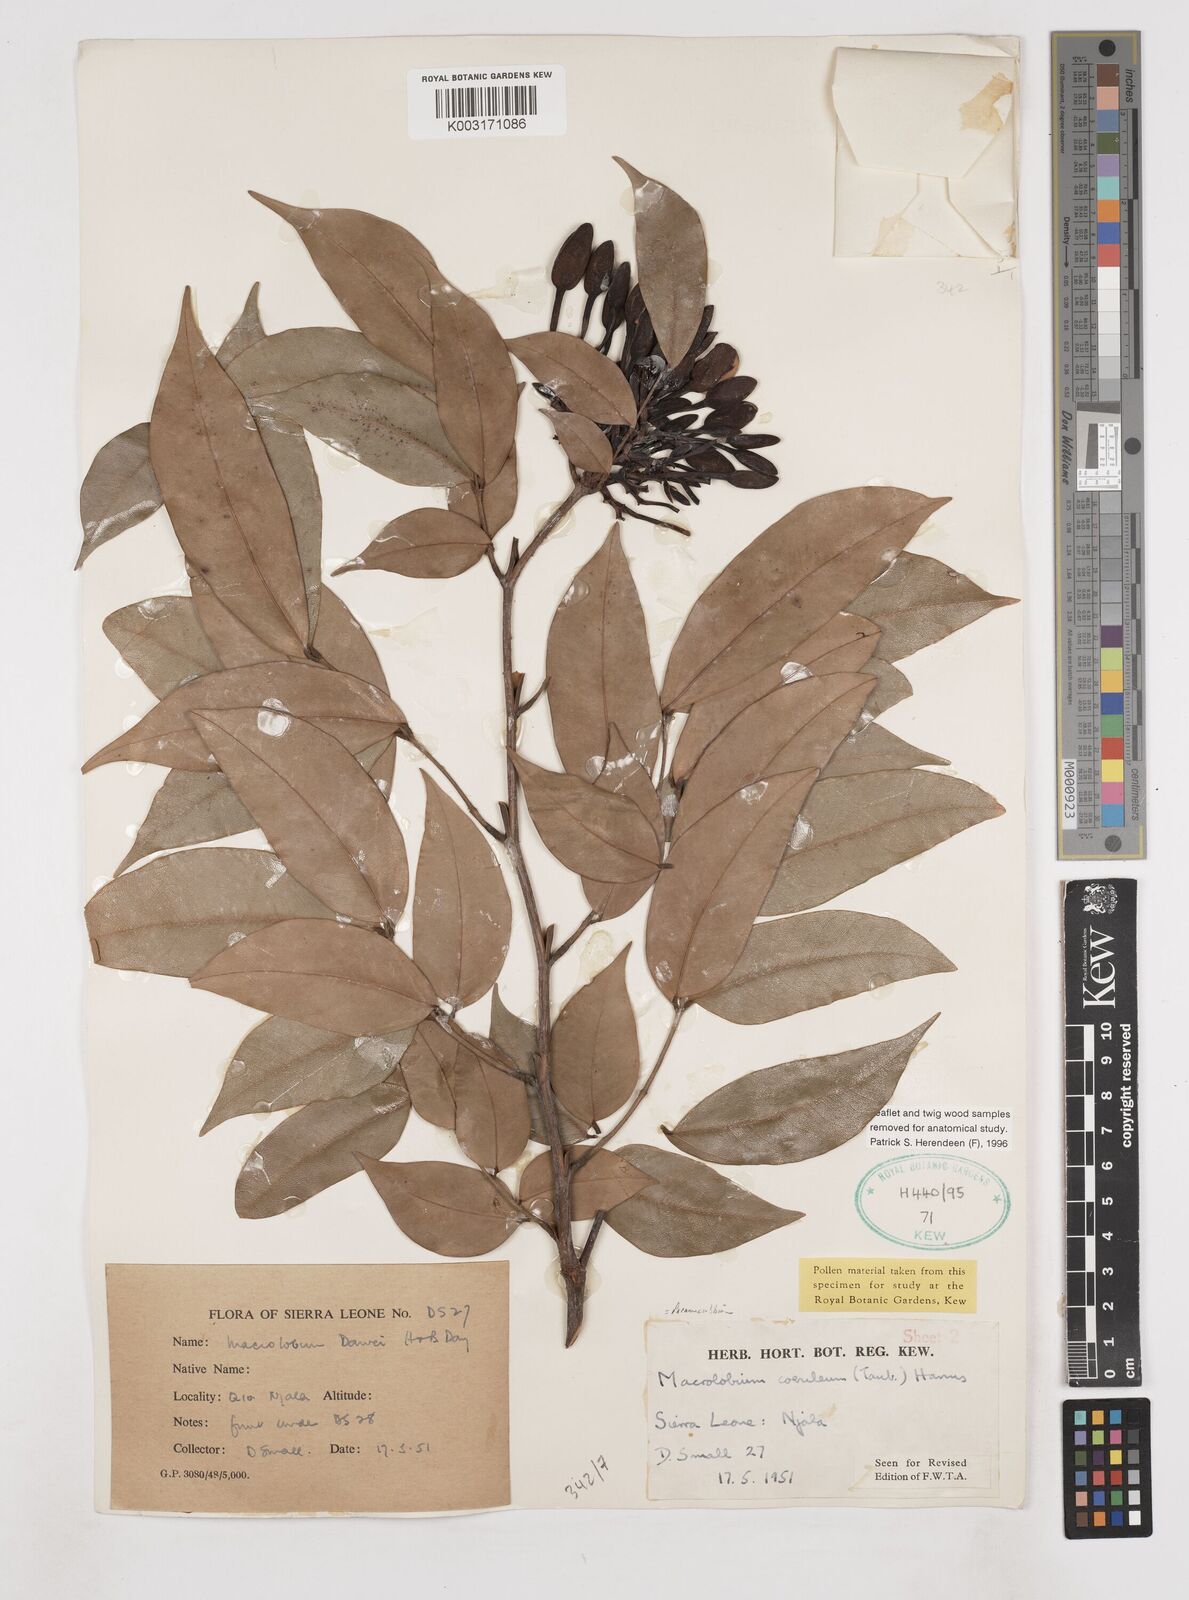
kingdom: Plantae
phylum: Tracheophyta
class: Magnoliopsida
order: Fabales
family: Fabaceae
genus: Paramacrolobium
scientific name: Paramacrolobium coeruleum
